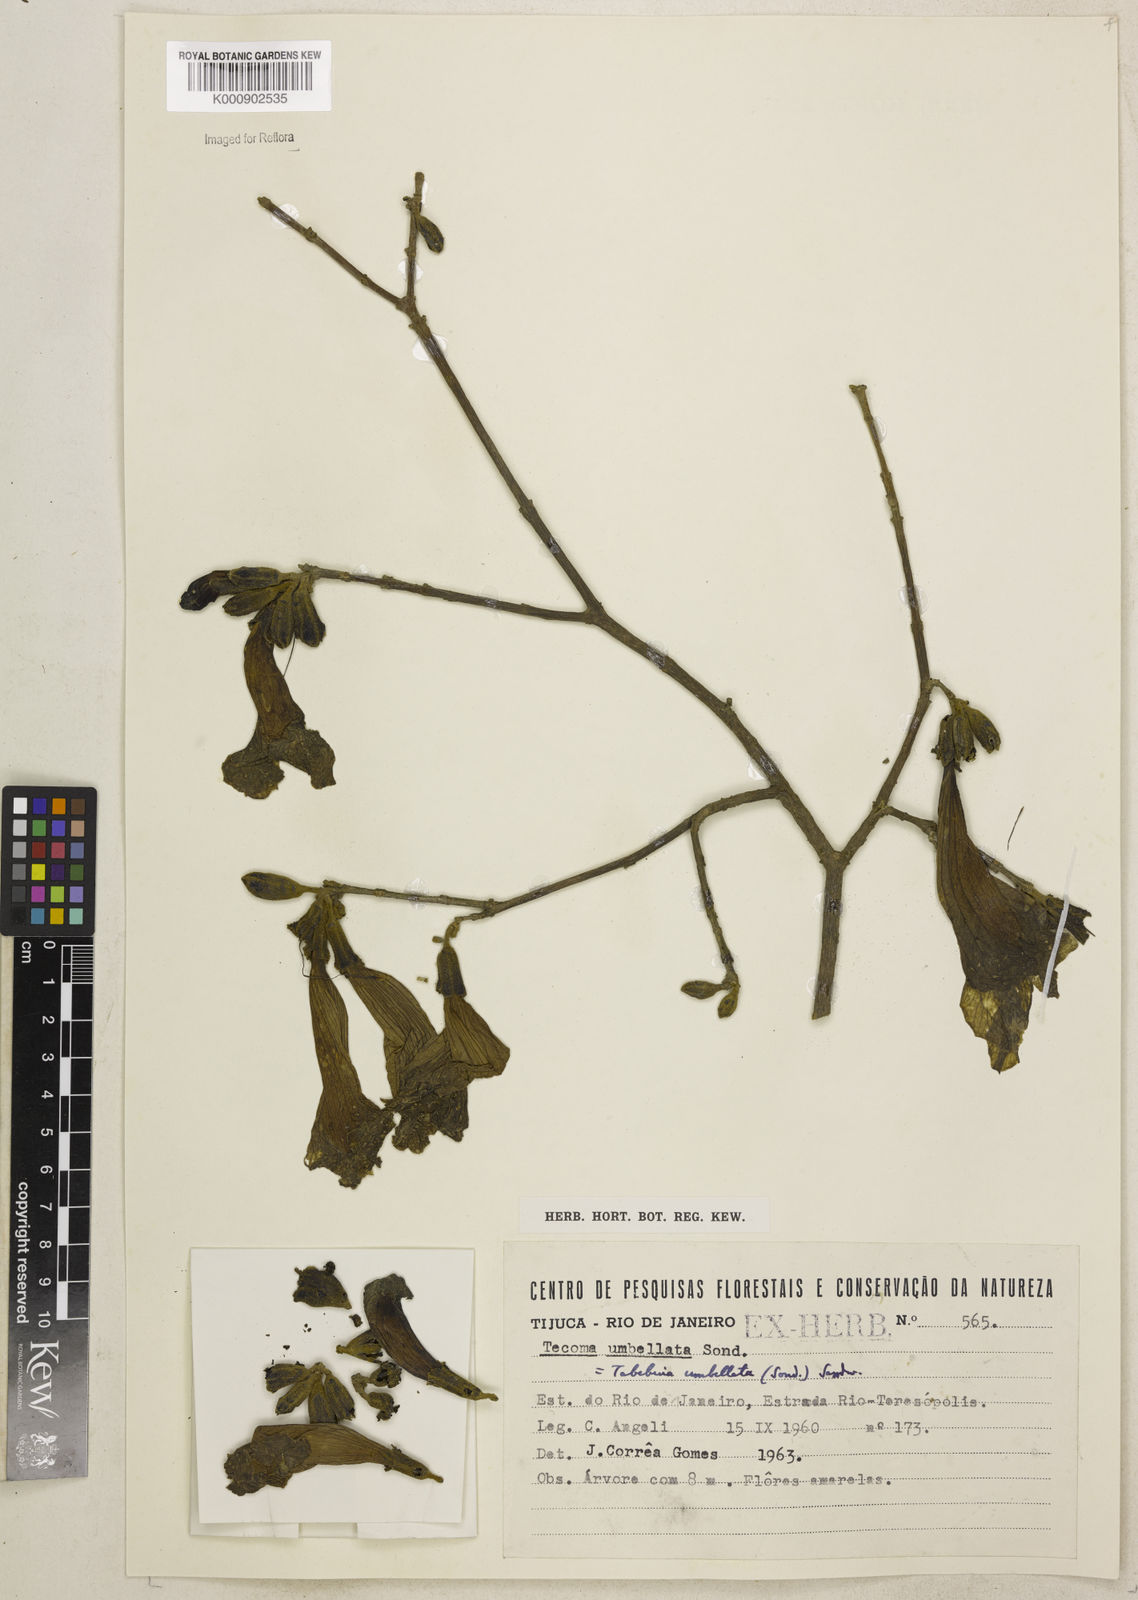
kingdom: Plantae
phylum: Tracheophyta
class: Magnoliopsida
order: Lamiales
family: Bignoniaceae
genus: Handroanthus
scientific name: Handroanthus umbellatus
